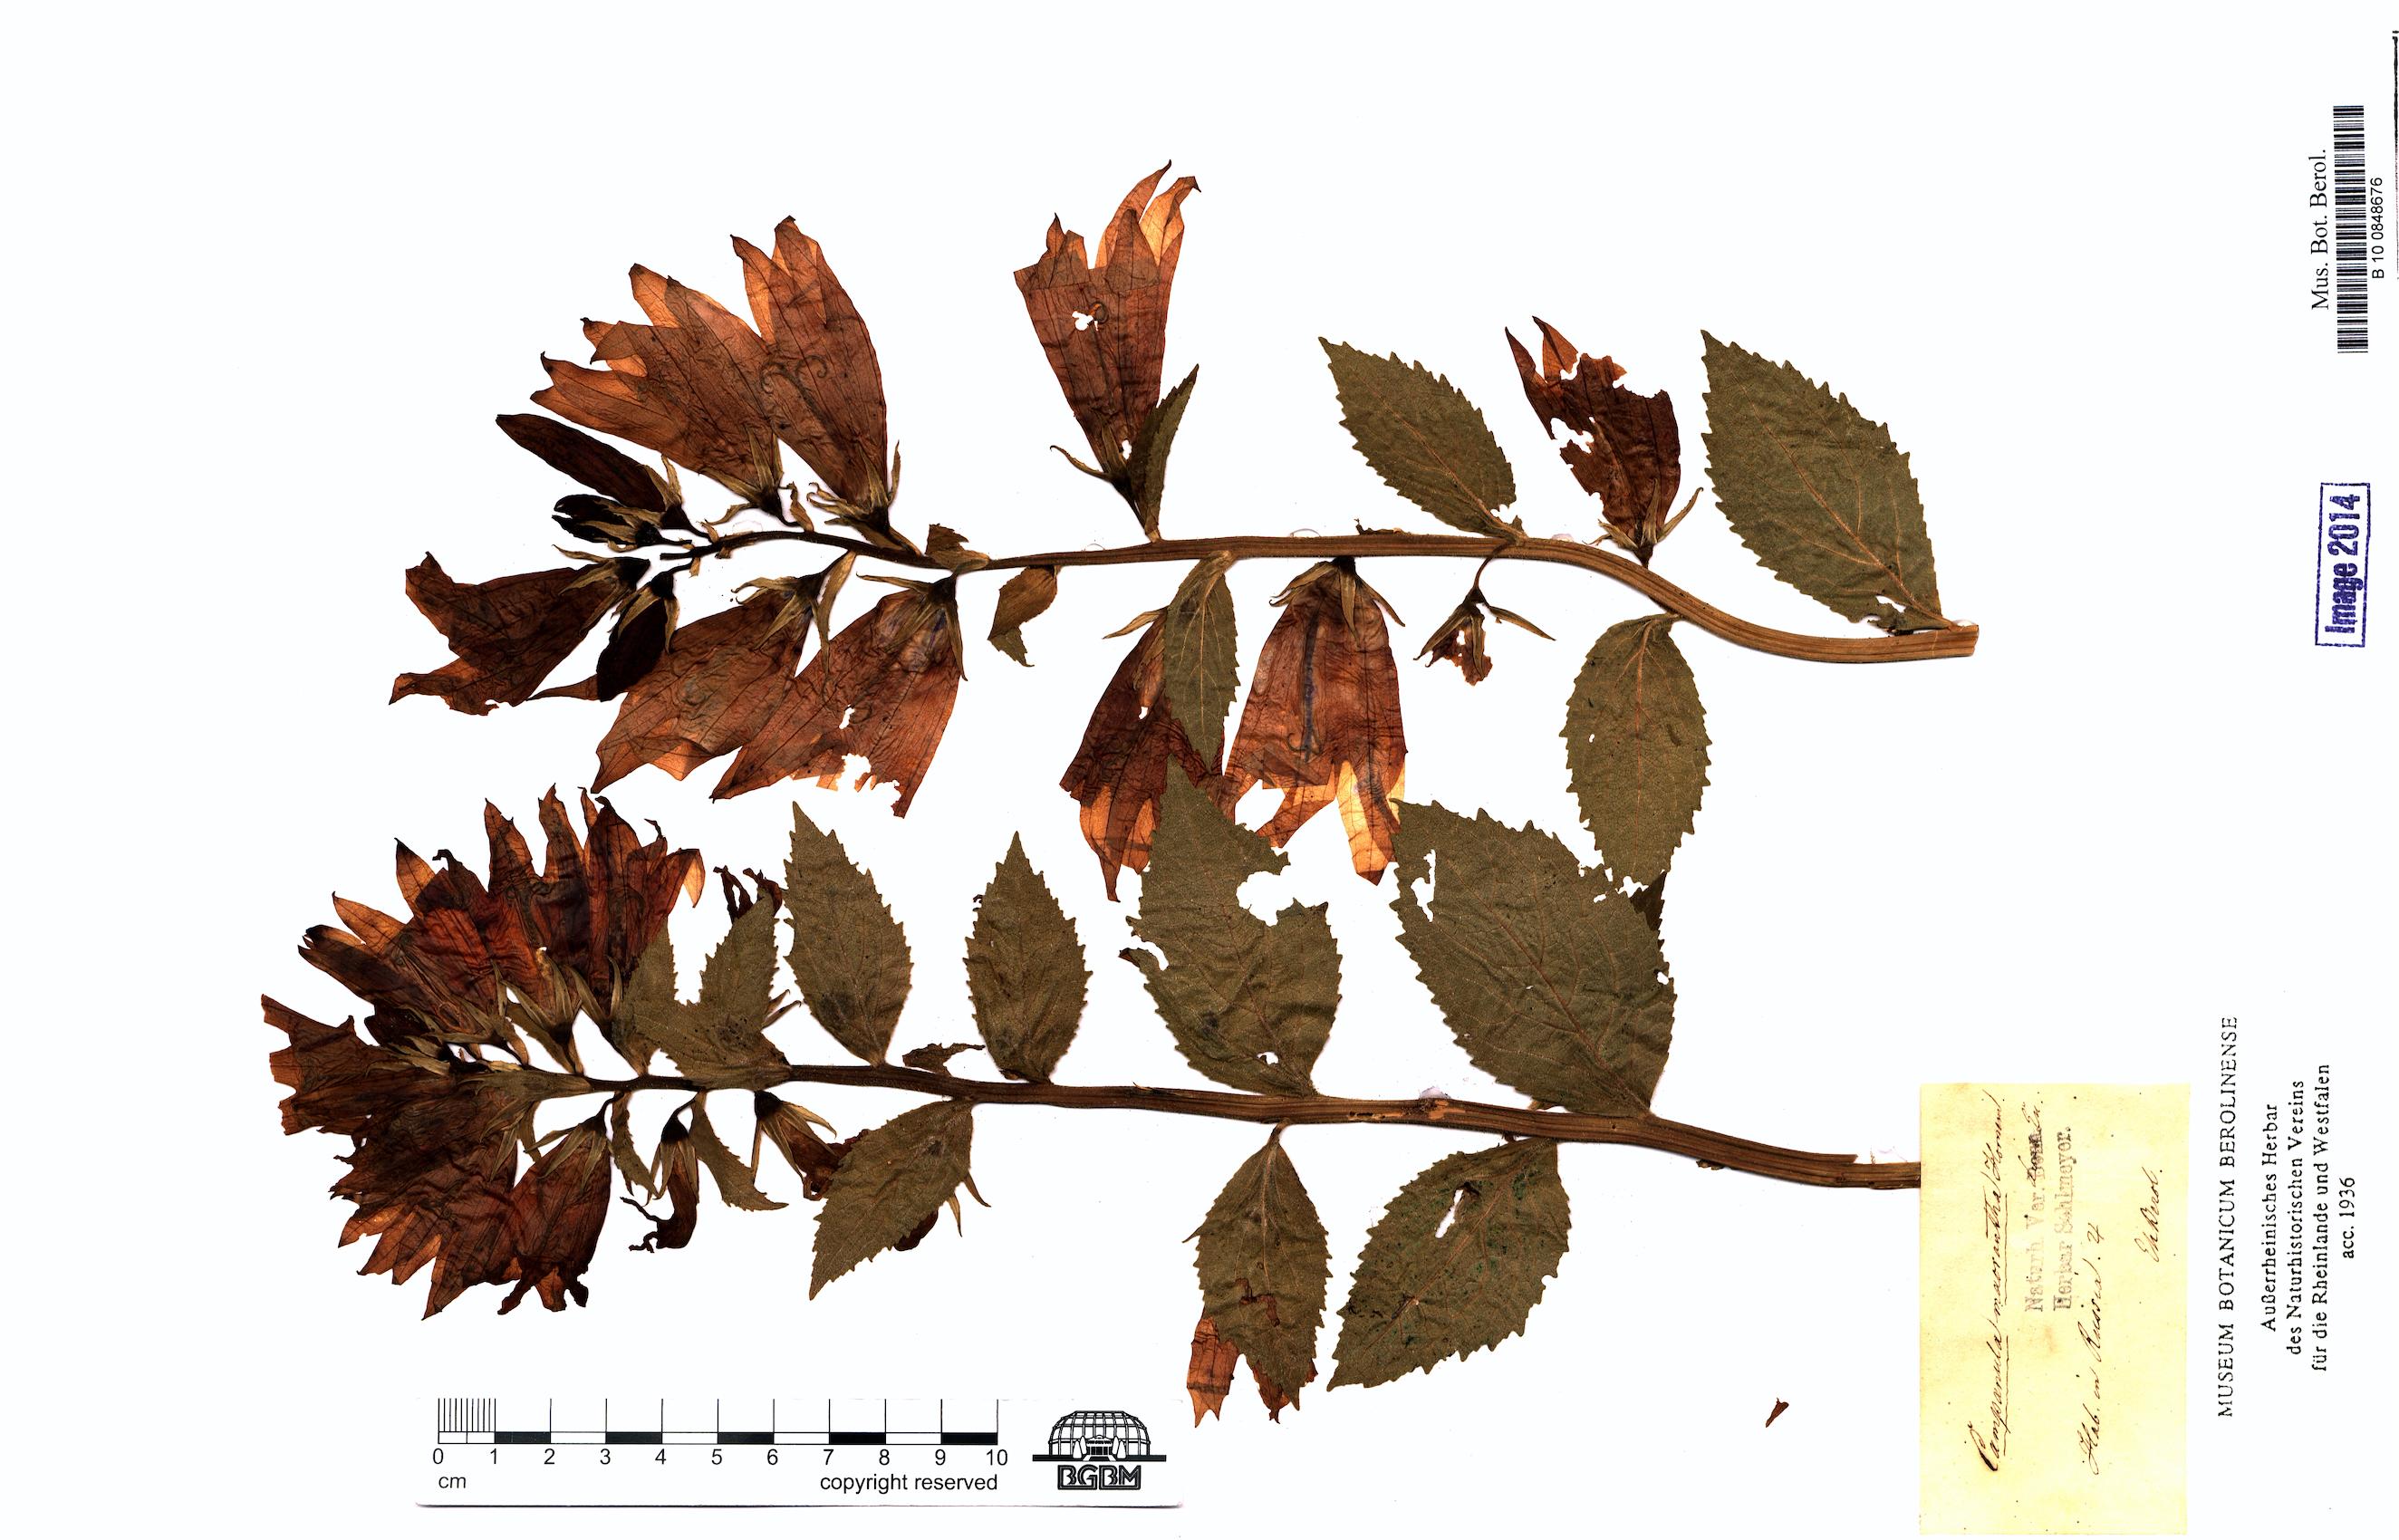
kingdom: Plantae
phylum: Tracheophyta
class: Magnoliopsida
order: Asterales
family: Campanulaceae
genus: Campanula
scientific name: Campanula latifolia
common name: Giant bellflower
